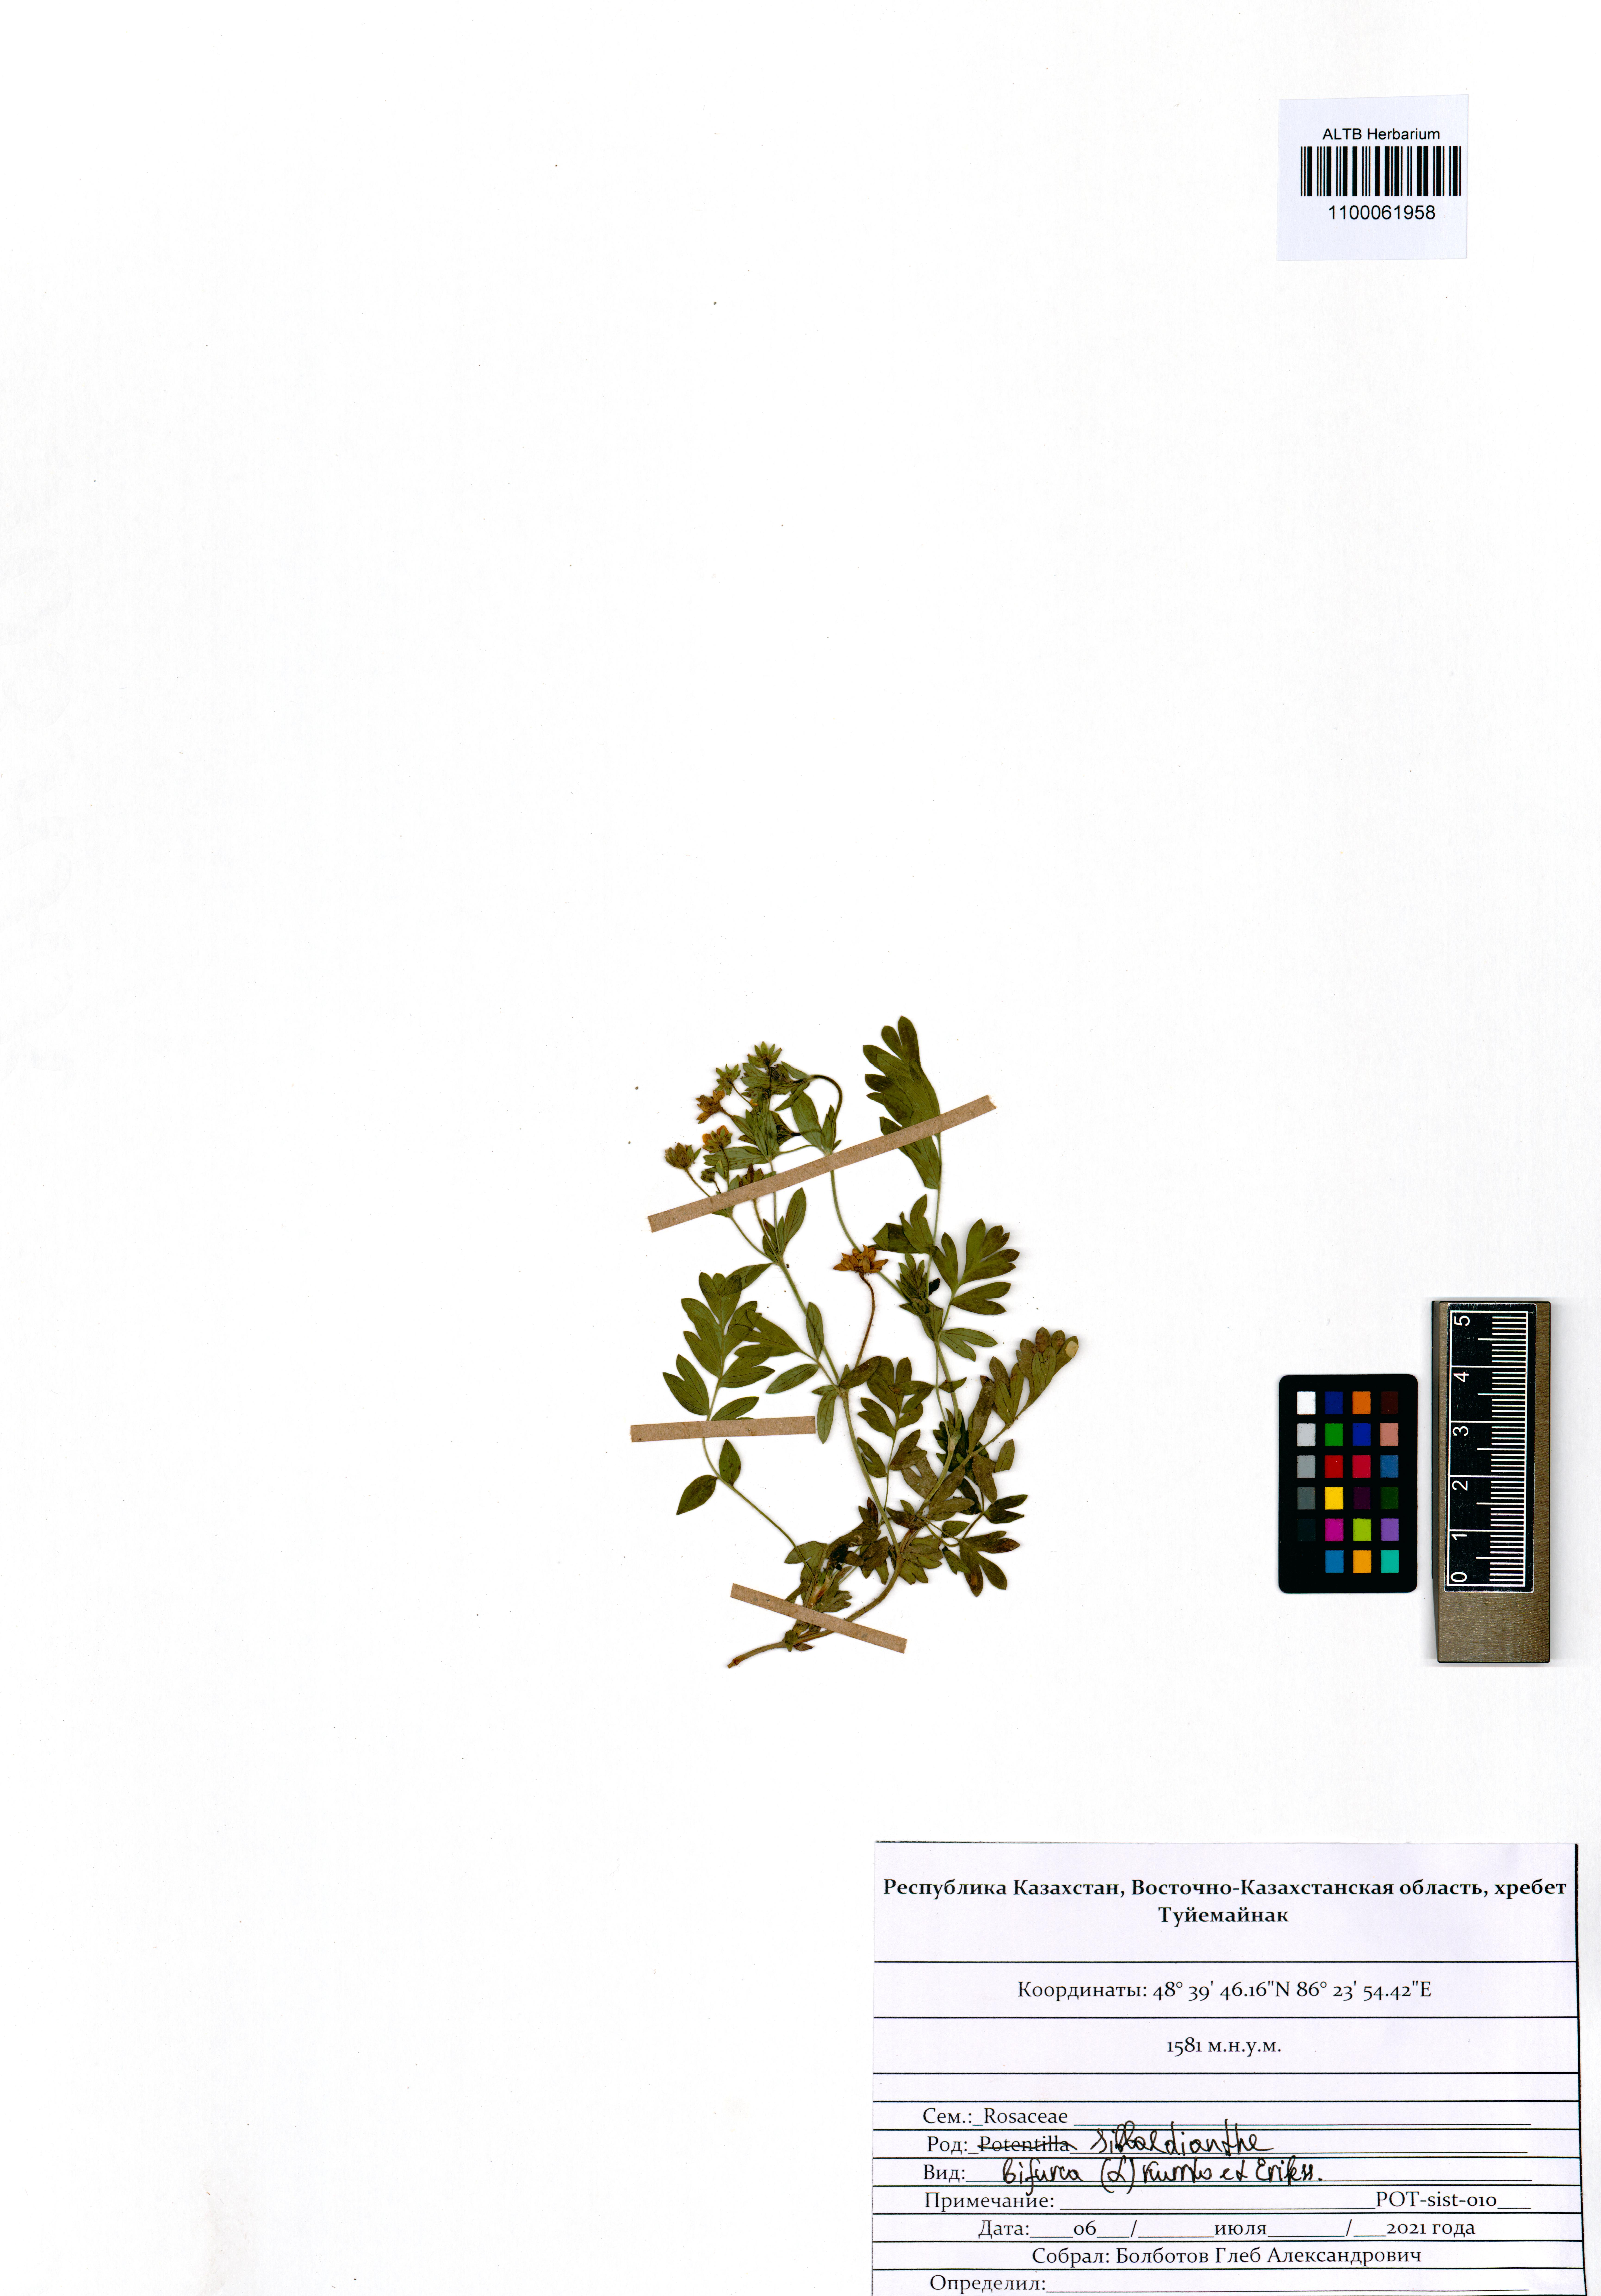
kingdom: Plantae
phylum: Tracheophyta
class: Magnoliopsida
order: Rosales
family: Rosaceae
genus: Sibbaldianthe
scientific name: Sibbaldianthe bifurca
